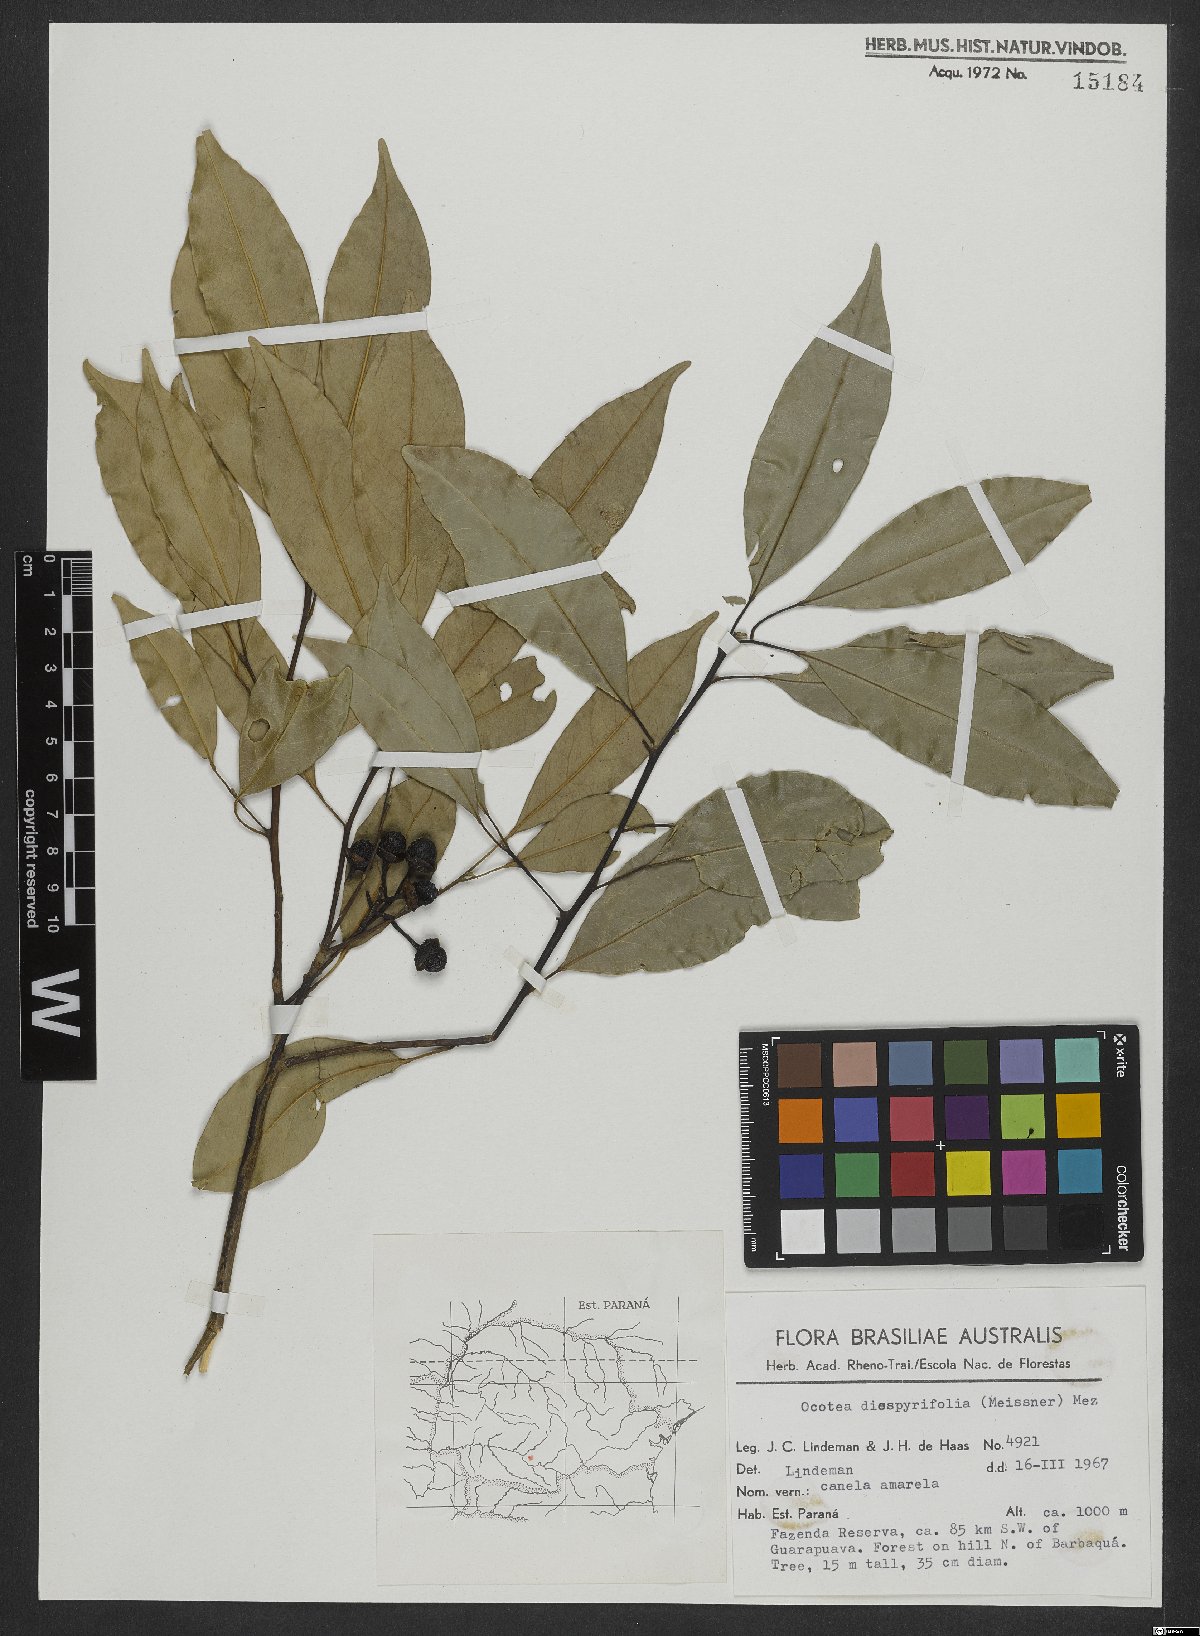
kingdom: Plantae
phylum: Tracheophyta
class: Magnoliopsida
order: Laurales
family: Lauraceae
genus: Ocotea
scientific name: Ocotea diospyrifolia
